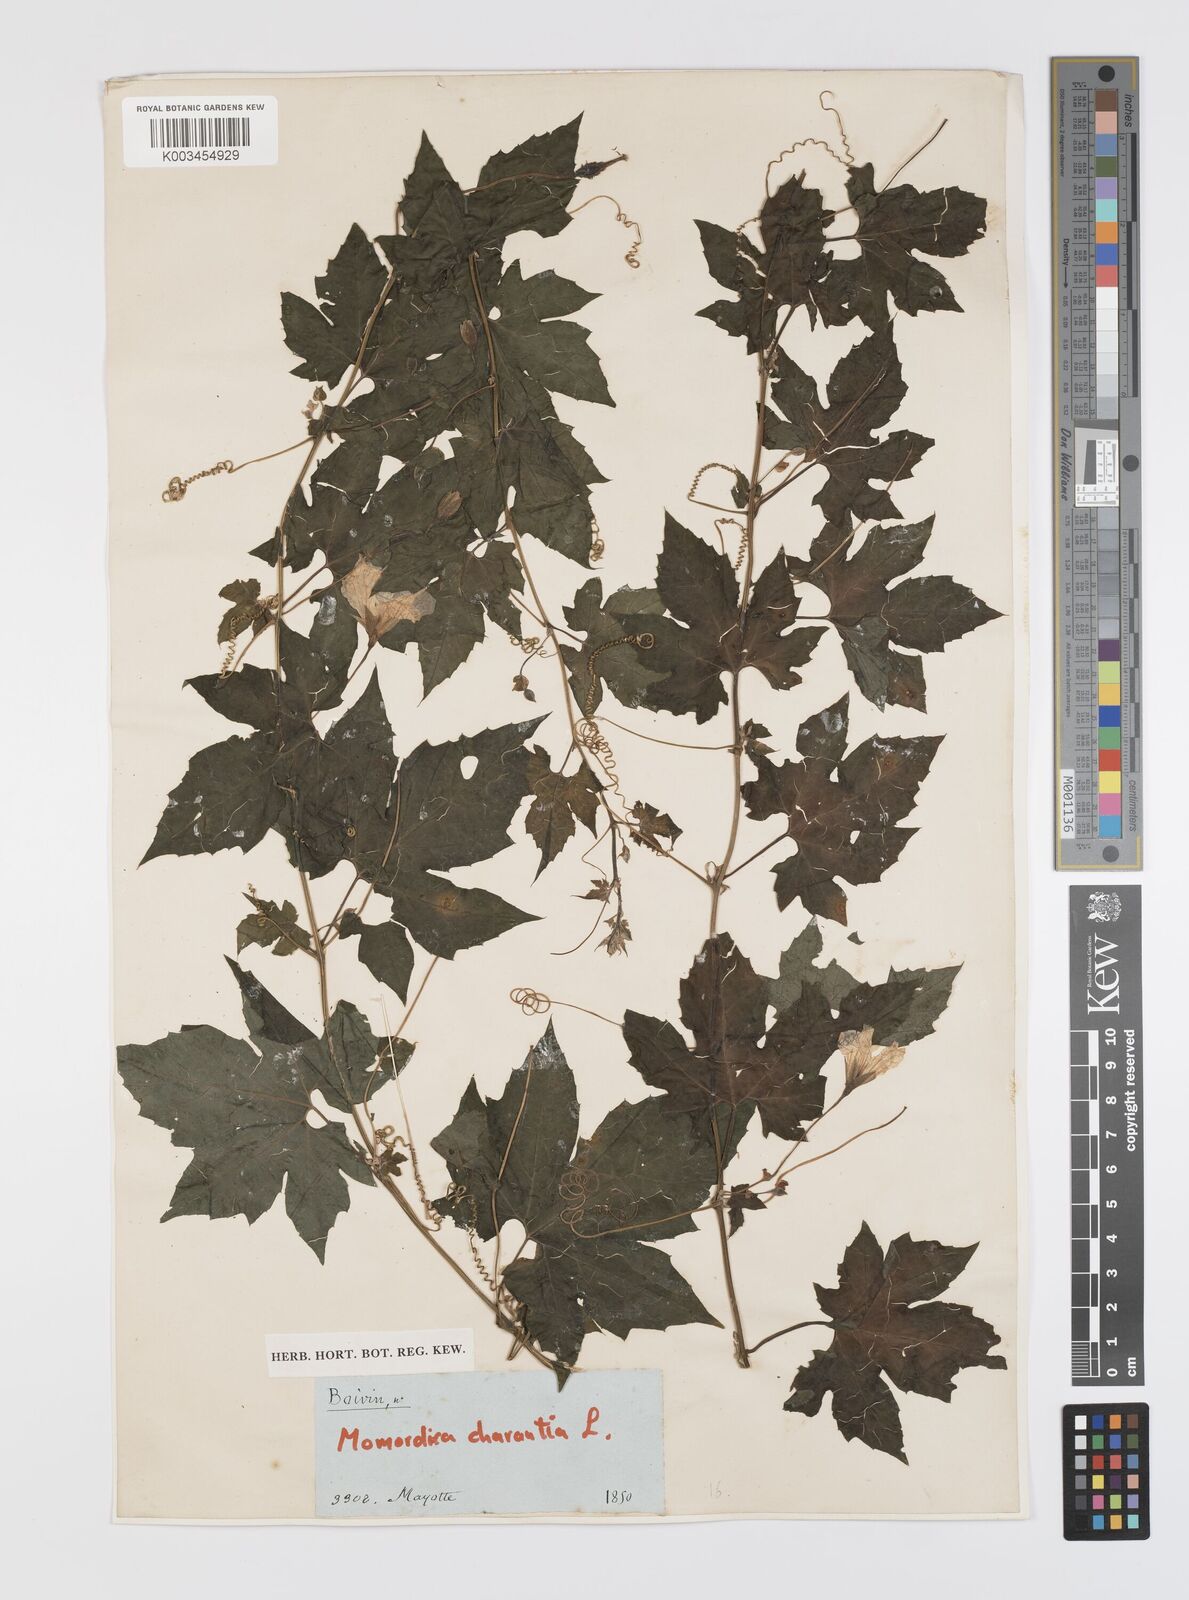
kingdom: Plantae
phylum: Tracheophyta
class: Magnoliopsida
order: Cucurbitales
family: Cucurbitaceae
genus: Momordica
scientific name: Momordica charantia
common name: Balsampear
